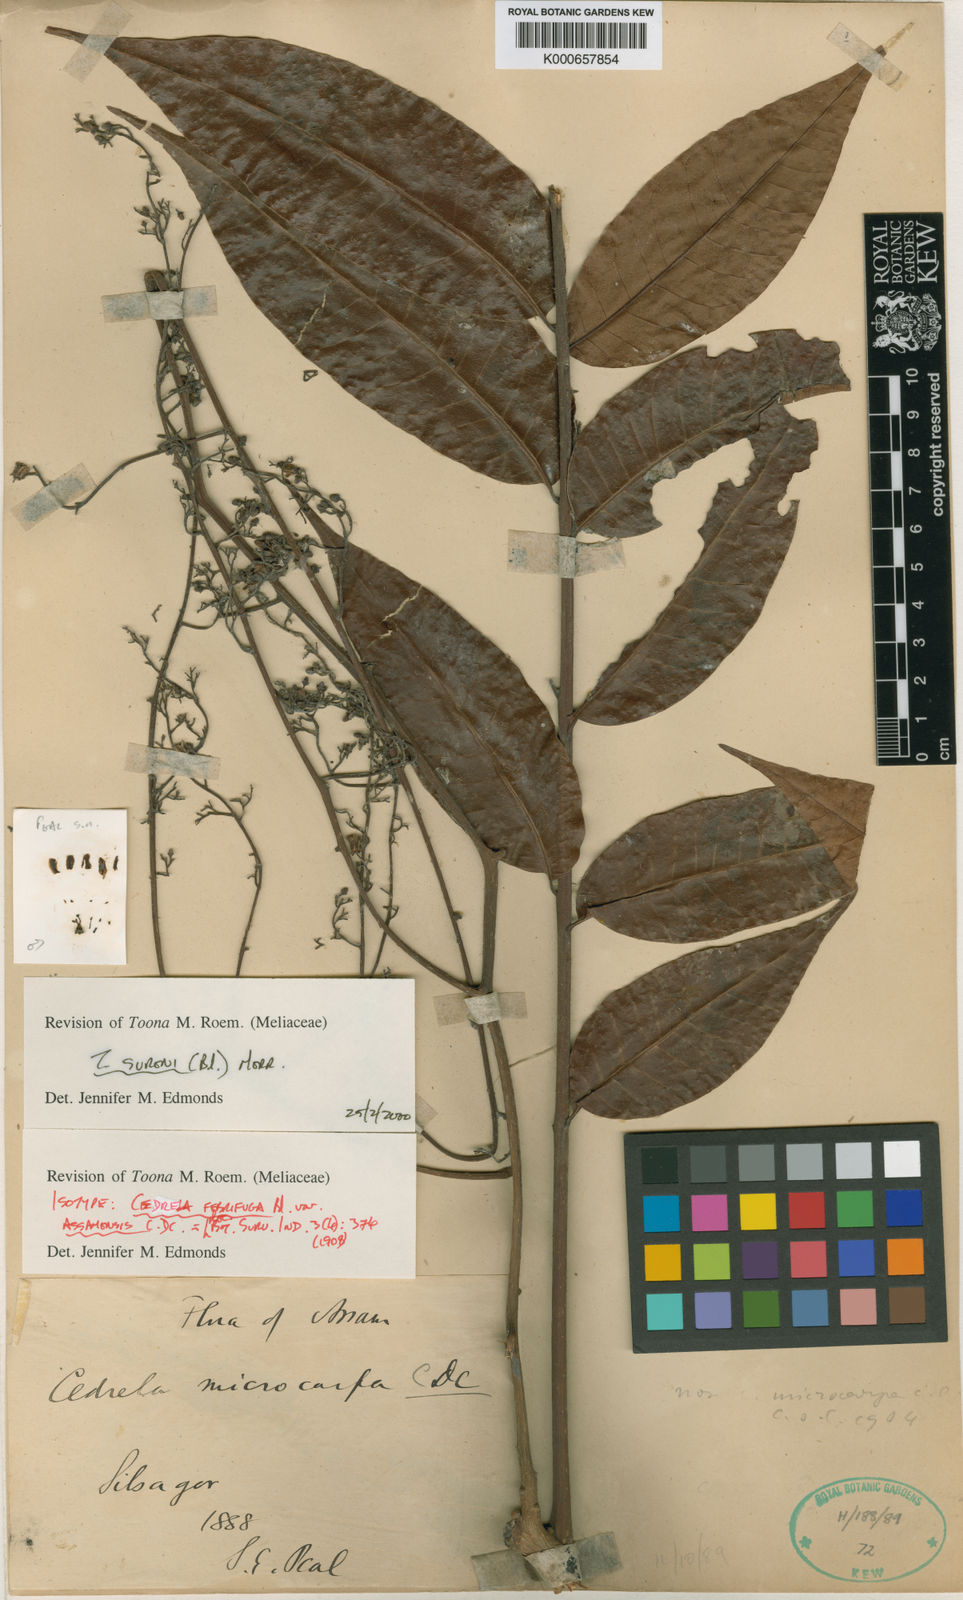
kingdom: Plantae
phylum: Tracheophyta
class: Magnoliopsida
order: Sapindales
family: Meliaceae
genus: Toona
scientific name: Toona sureni
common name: Red cedar
